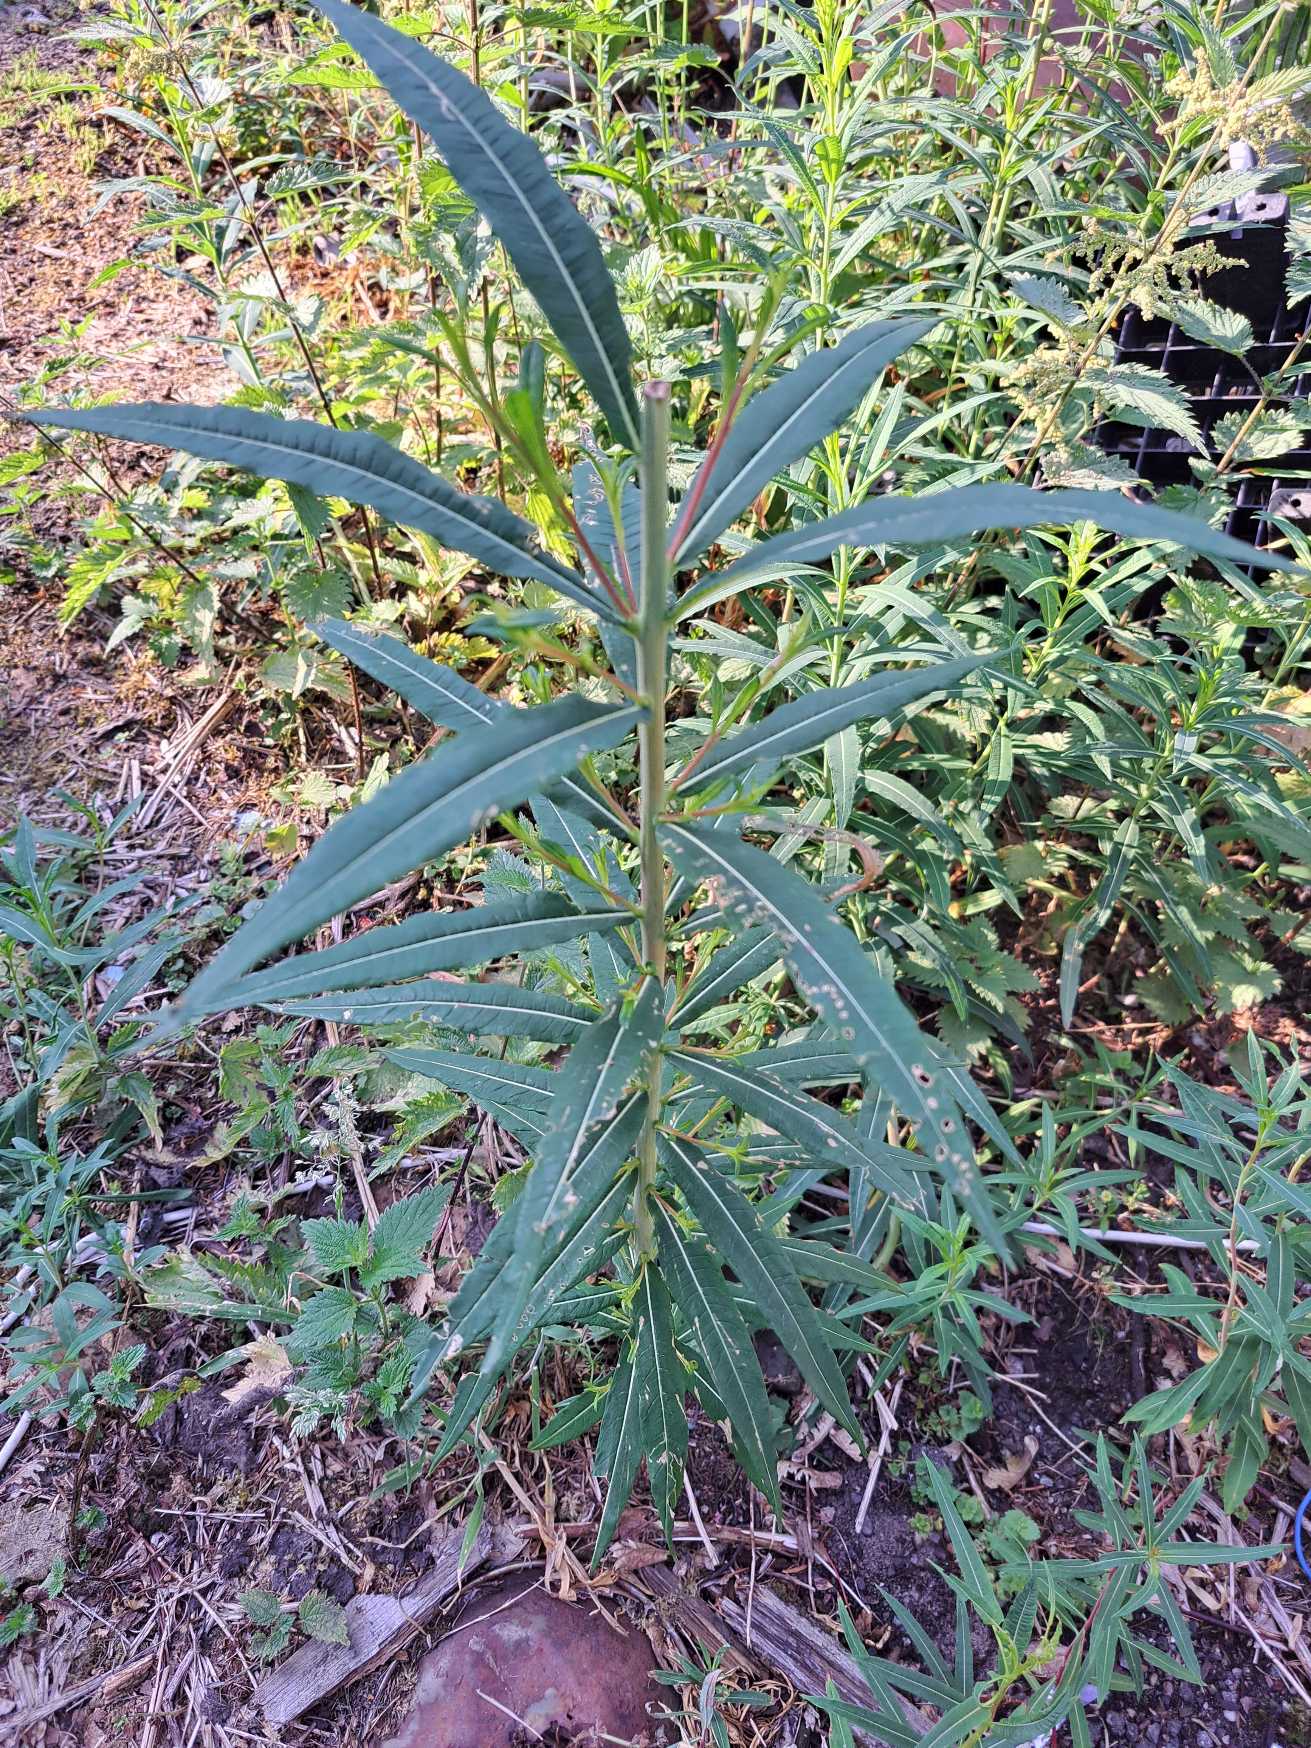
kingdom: Plantae
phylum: Tracheophyta
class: Magnoliopsida
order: Myrtales
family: Onagraceae
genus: Chamaenerion
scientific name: Chamaenerion angustifolium
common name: Gederams
